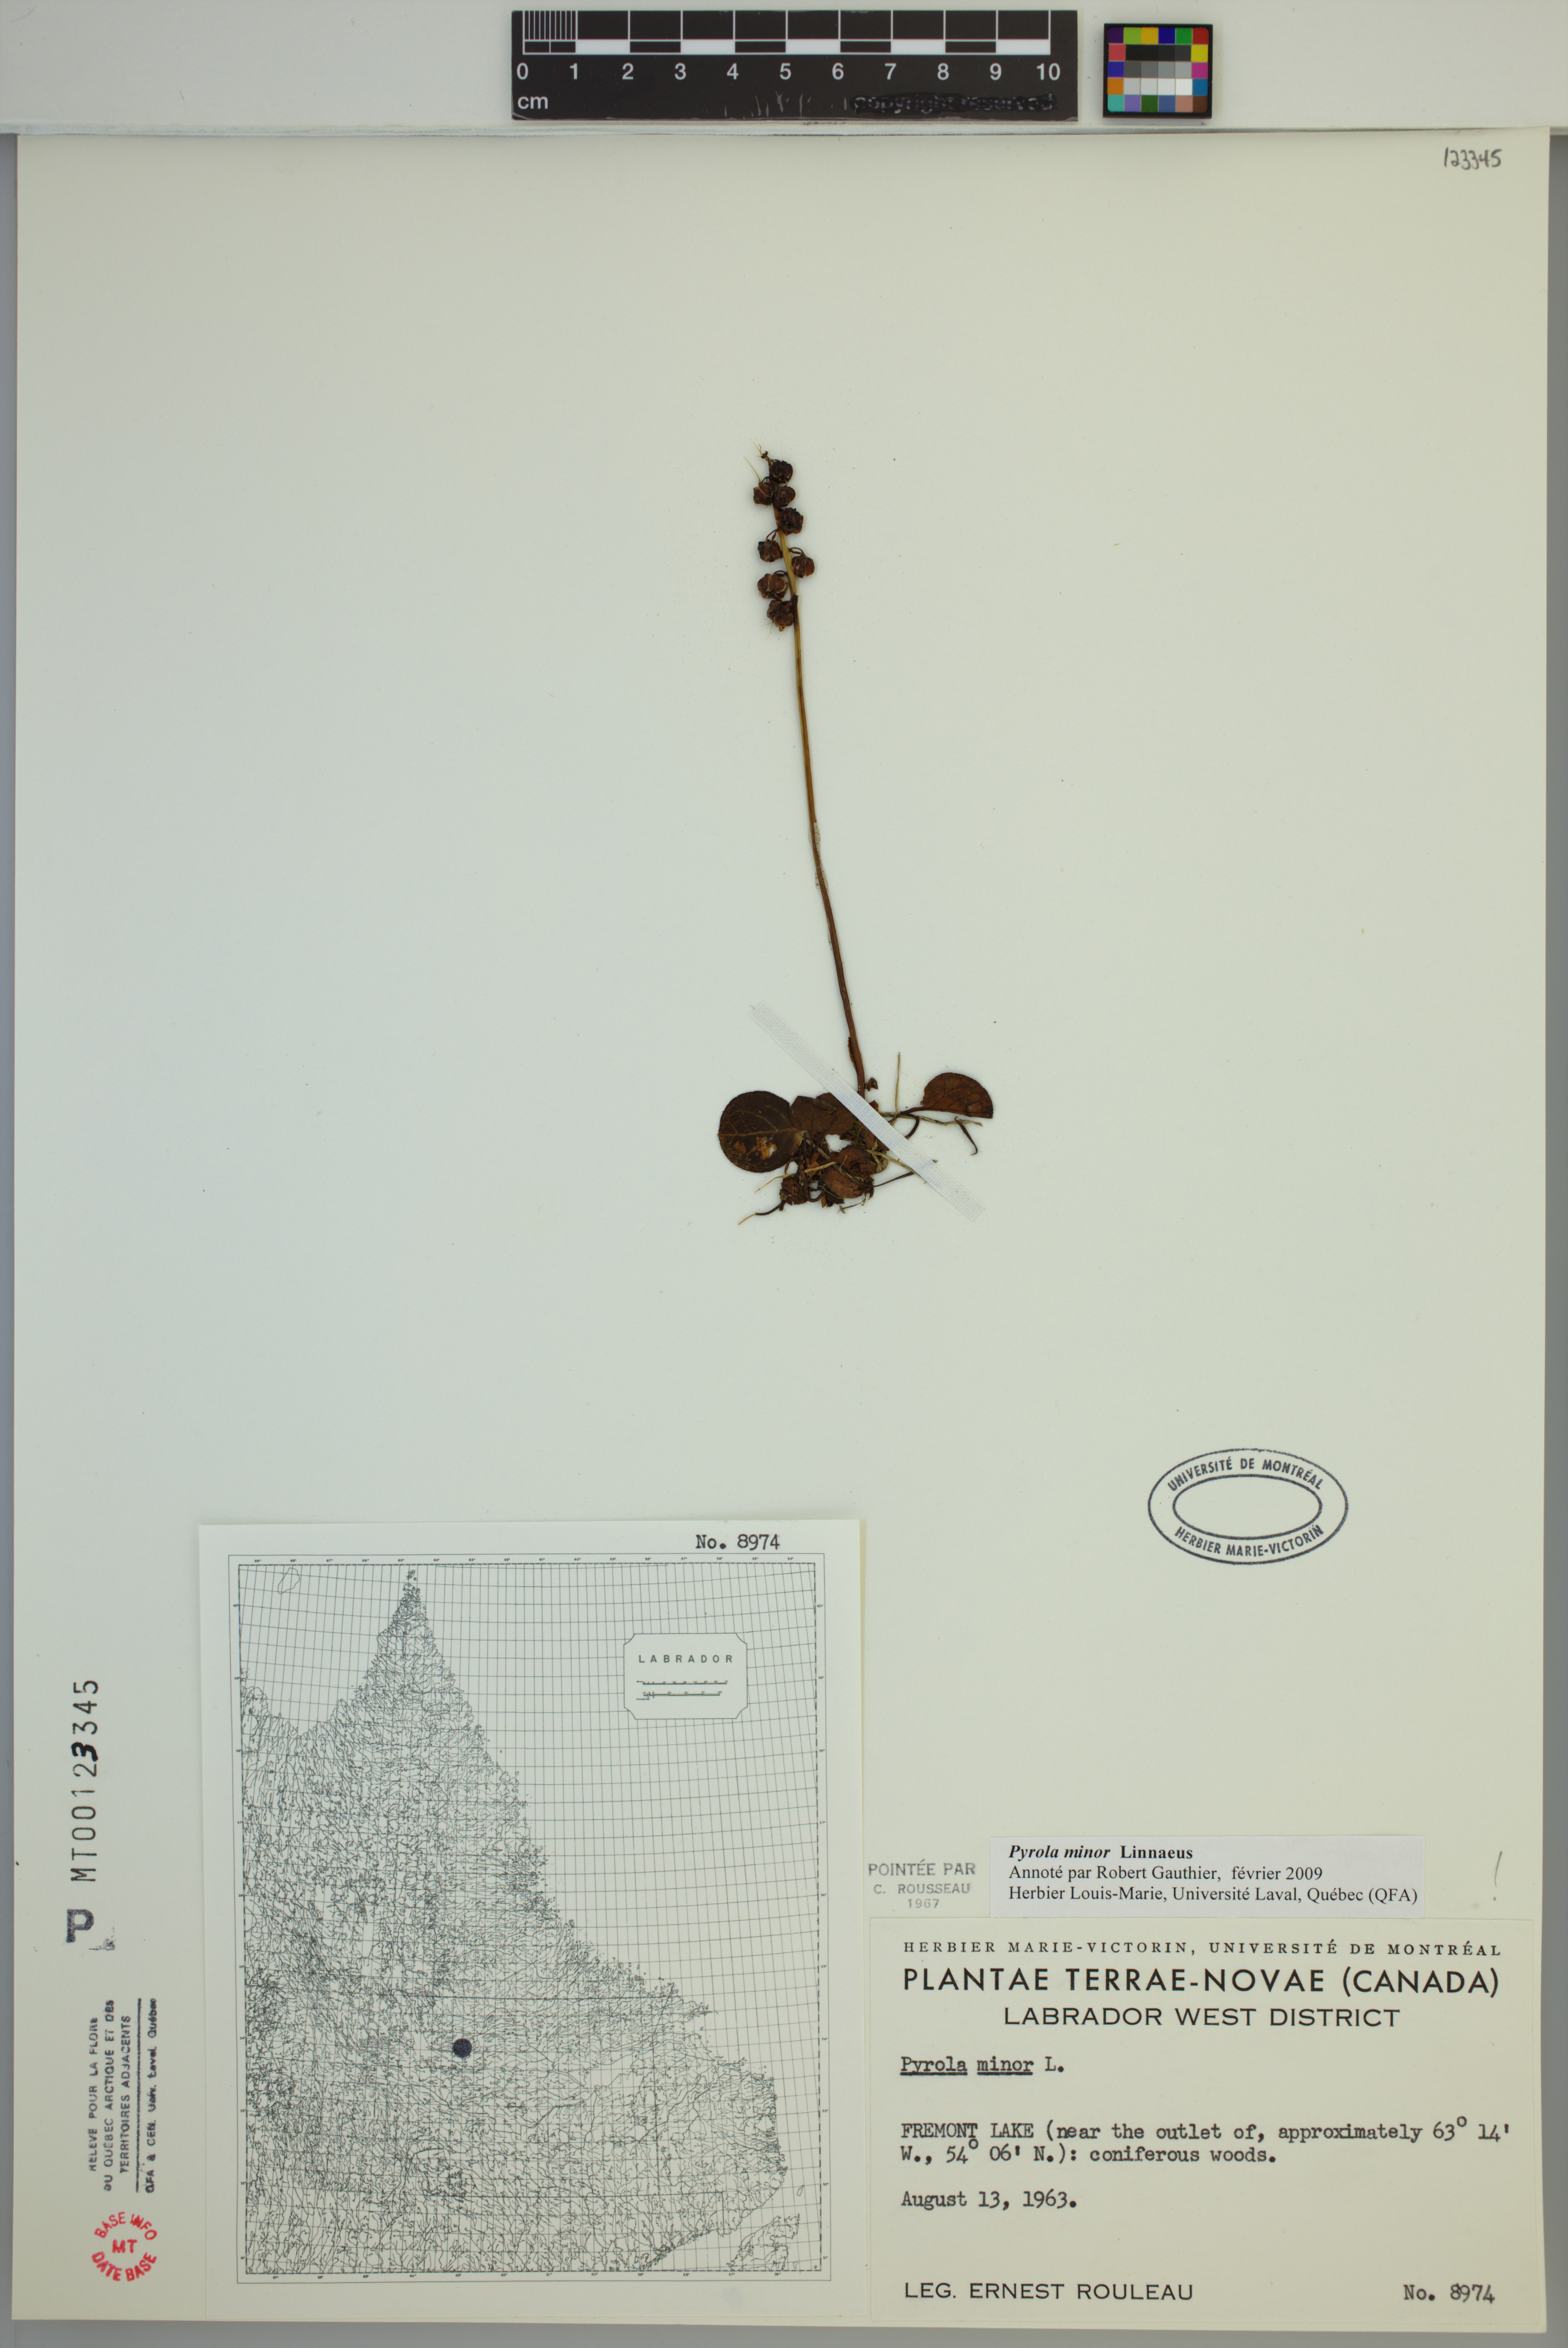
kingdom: Plantae
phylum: Tracheophyta
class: Magnoliopsida
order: Ericales
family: Ericaceae
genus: Pyrola
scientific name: Pyrola minor
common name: Common wintergreen
